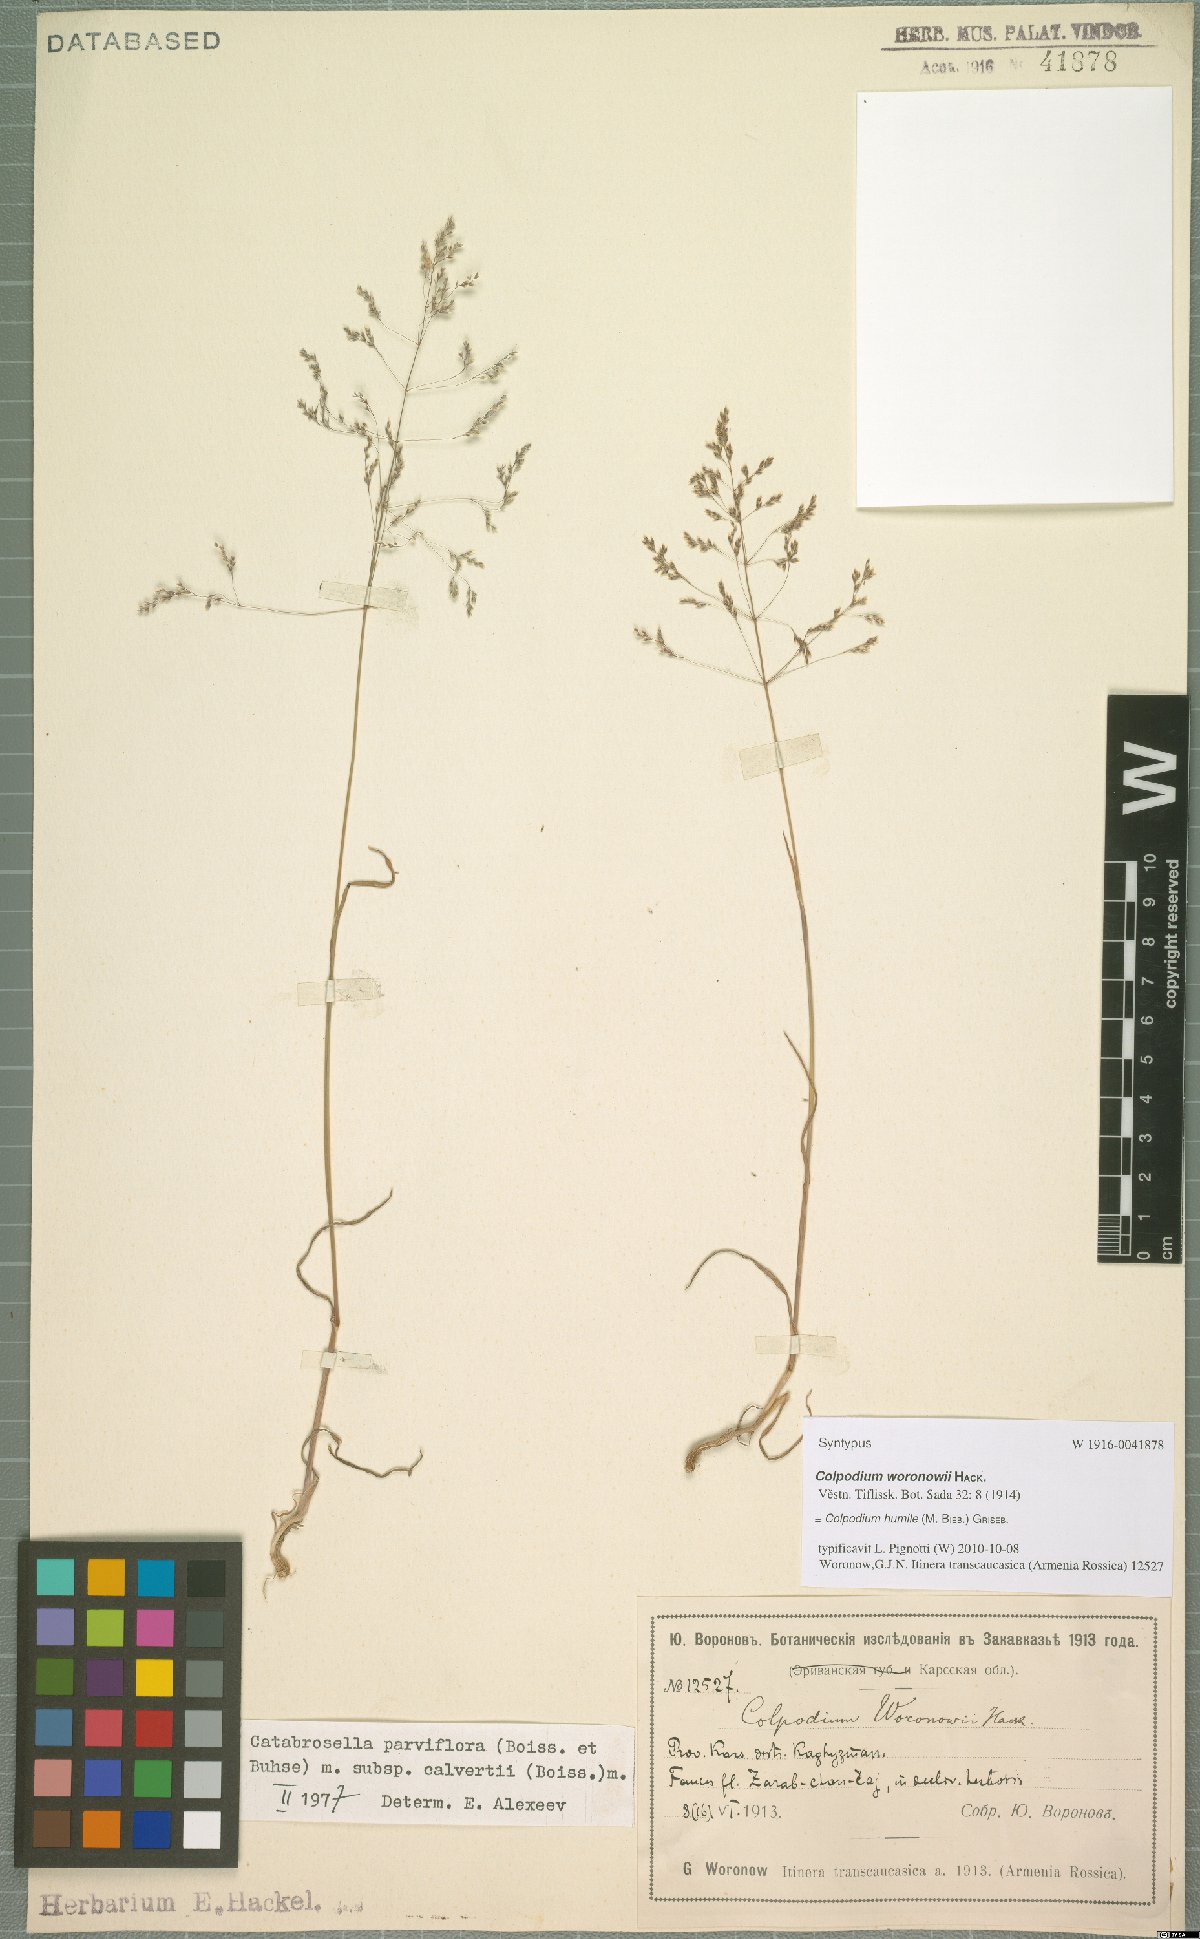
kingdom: Plantae
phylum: Tracheophyta
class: Liliopsida
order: Poales
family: Poaceae
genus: Catabrosella
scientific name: Catabrosella humilis
